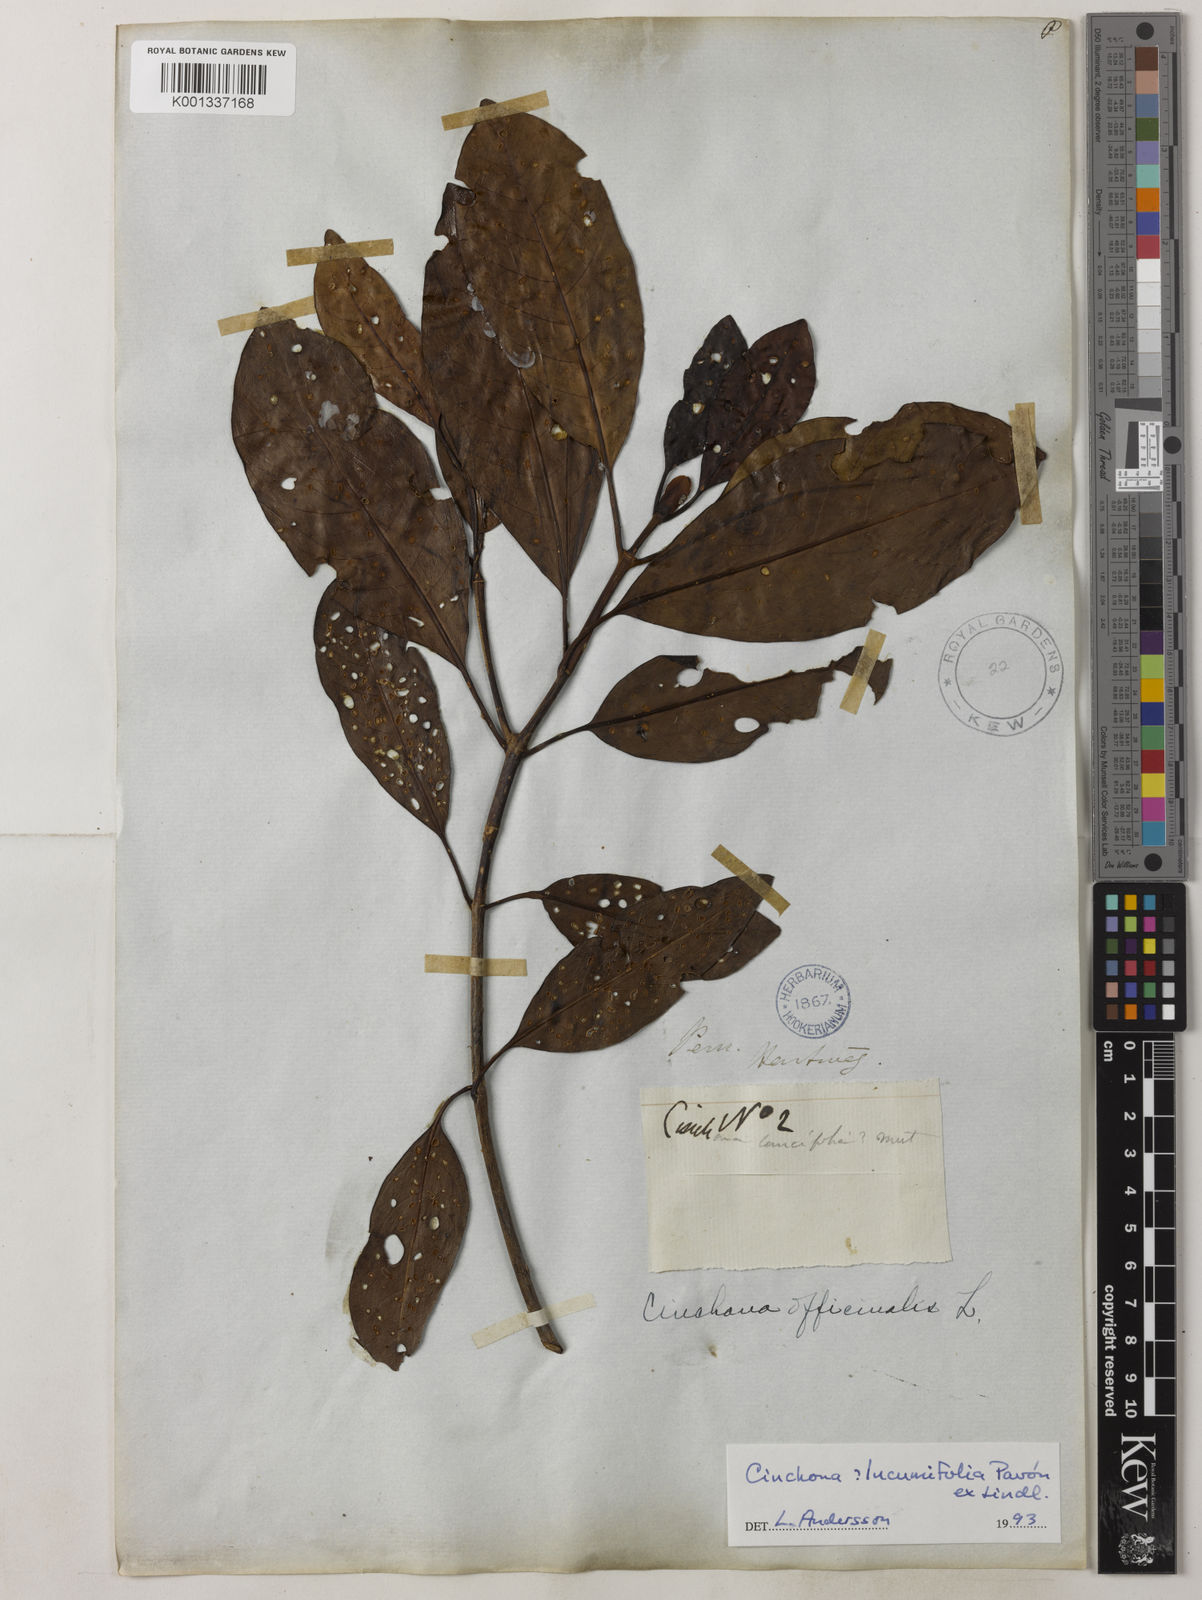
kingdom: Plantae
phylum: Tracheophyta
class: Magnoliopsida
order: Gentianales
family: Rubiaceae
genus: Cinchona
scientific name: Cinchona lucumifolia
